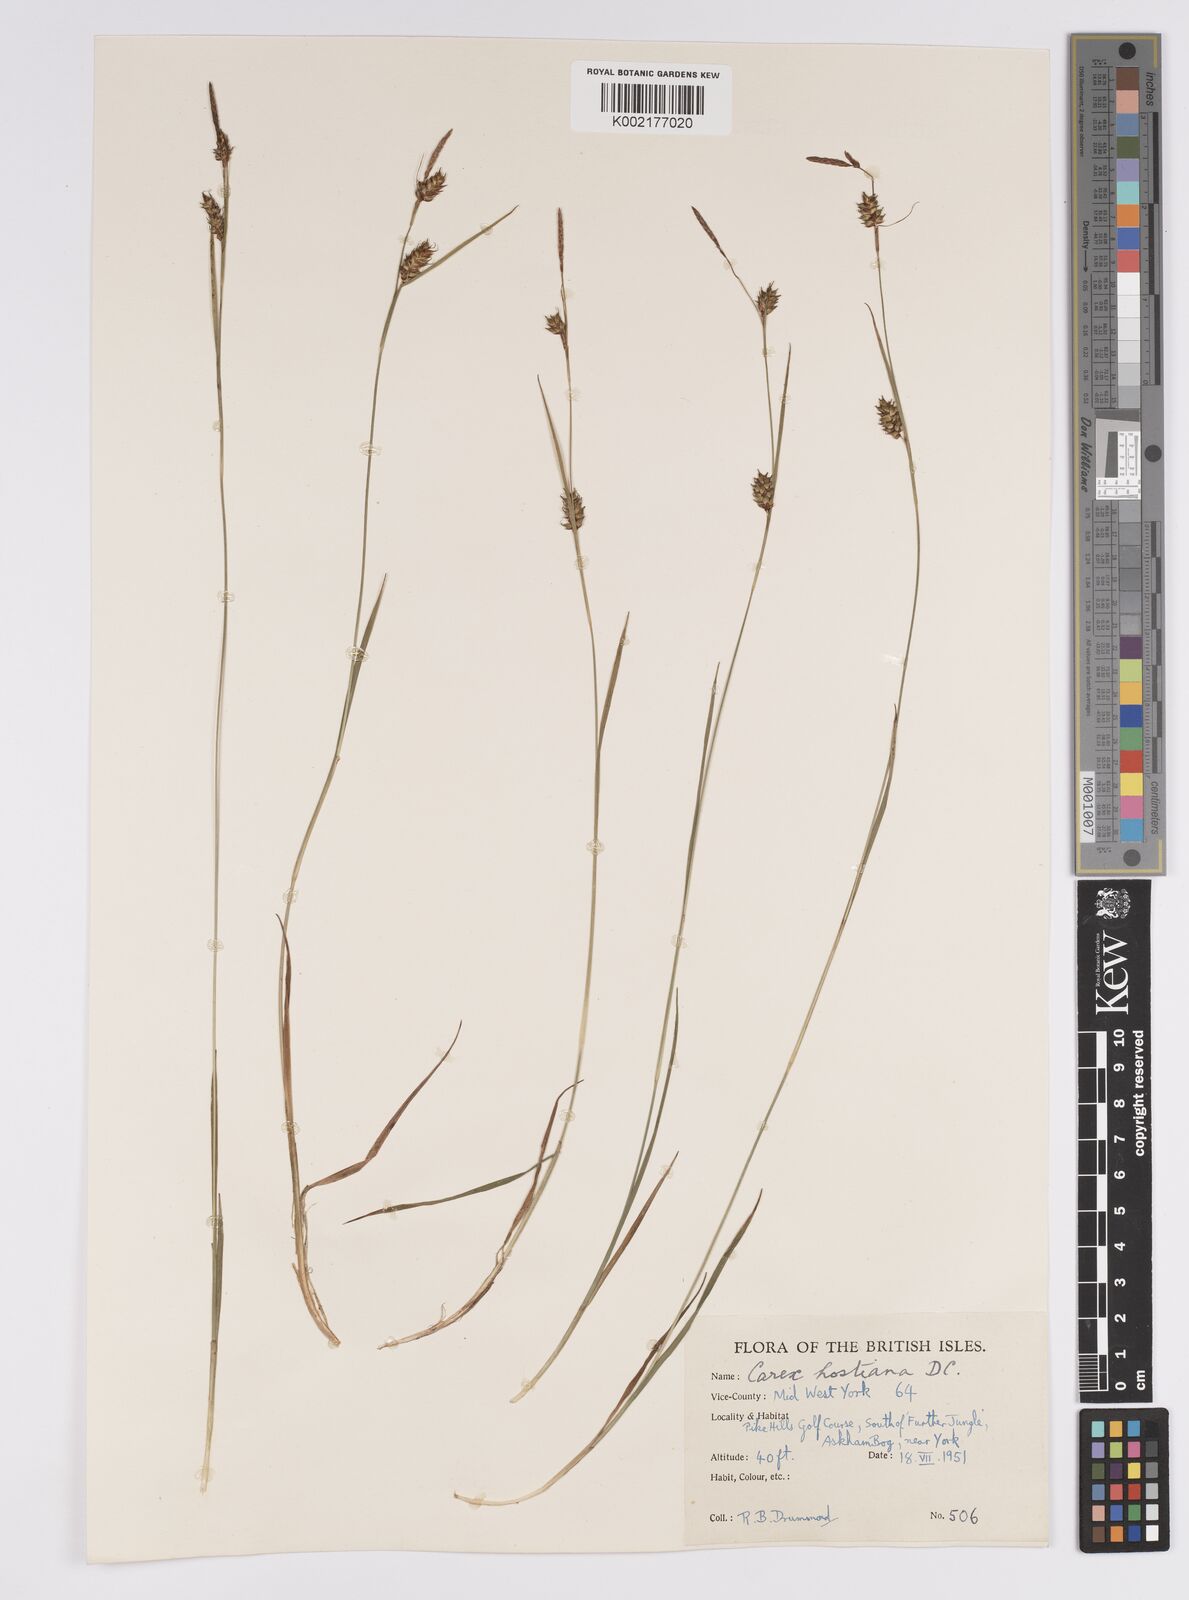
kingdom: Plantae
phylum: Tracheophyta
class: Liliopsida
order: Poales
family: Cyperaceae
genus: Carex
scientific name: Carex hostiana
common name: Tawny sedge
